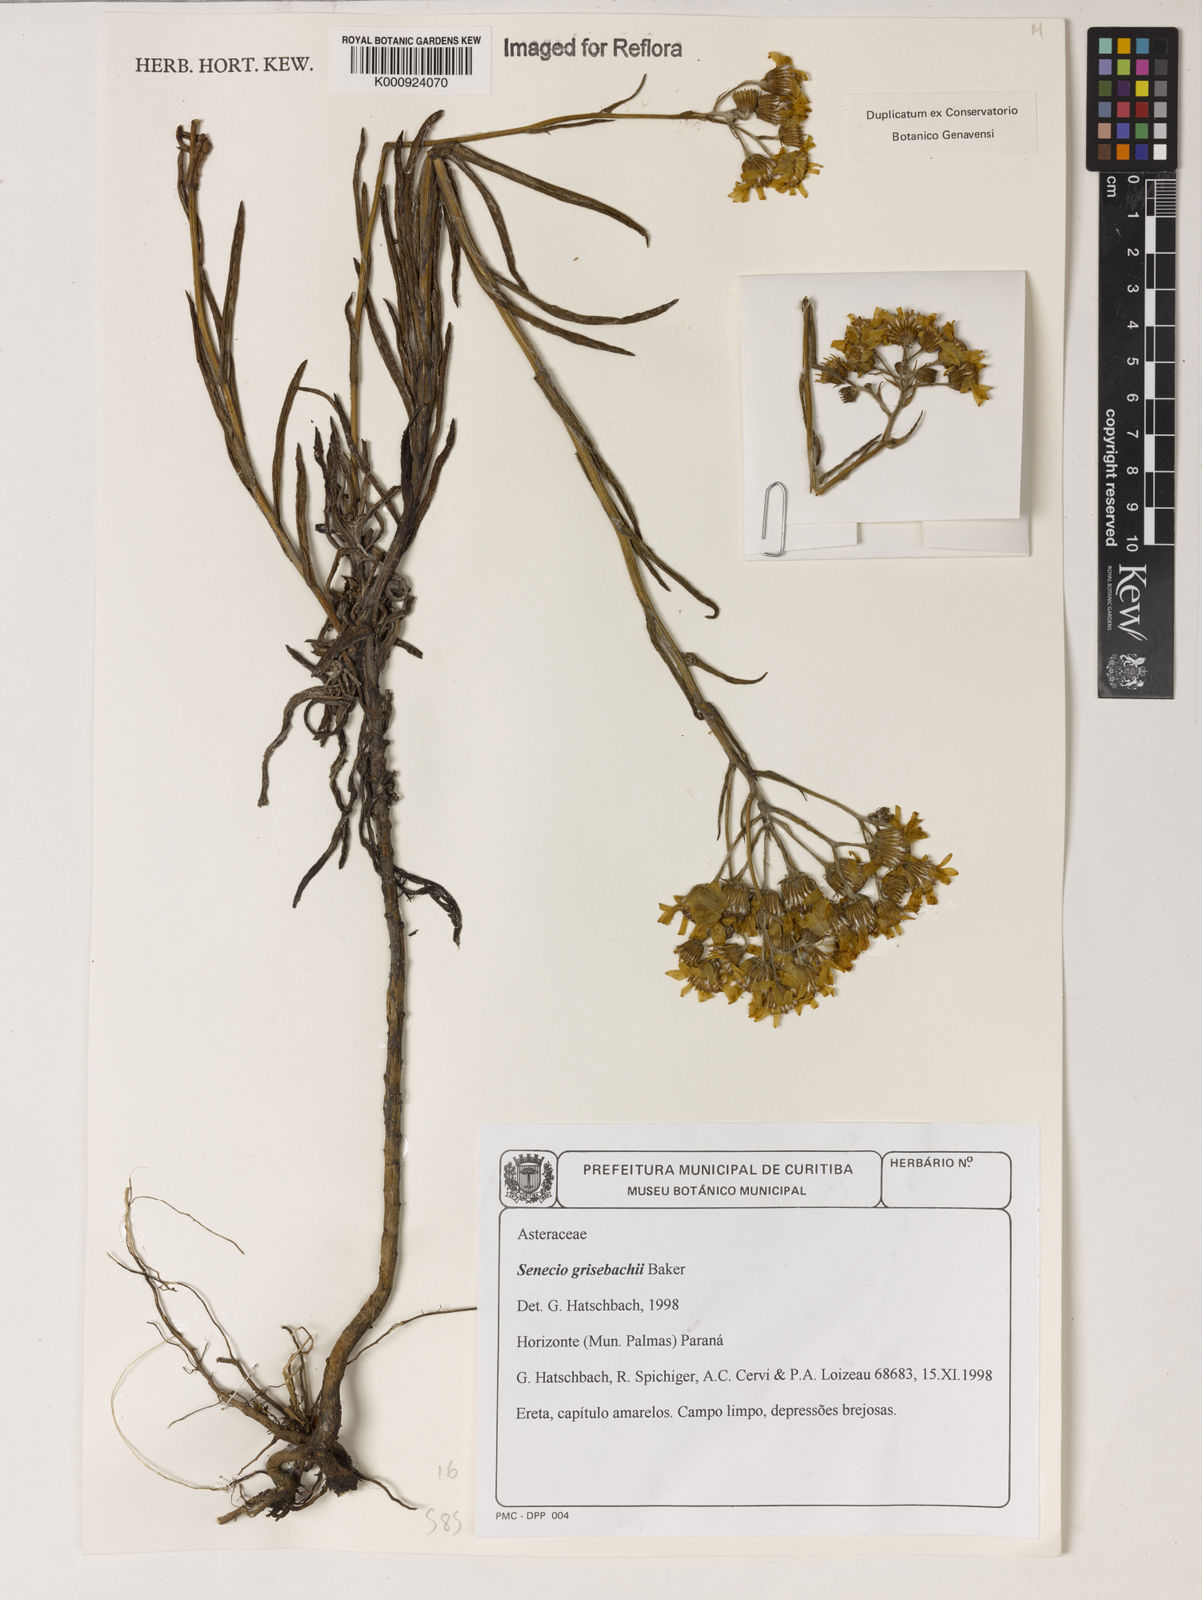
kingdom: Plantae
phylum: Tracheophyta
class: Magnoliopsida
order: Asterales
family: Asteraceae
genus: Senecio
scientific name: Senecio grisebachii
